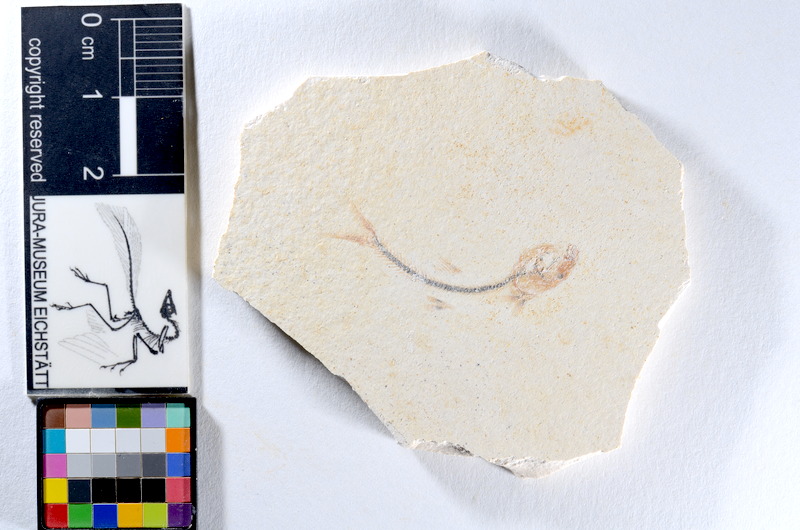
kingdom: Animalia
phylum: Chordata
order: Salmoniformes
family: Orthogonikleithridae
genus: Orthogonikleithrus
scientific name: Orthogonikleithrus hoelli
